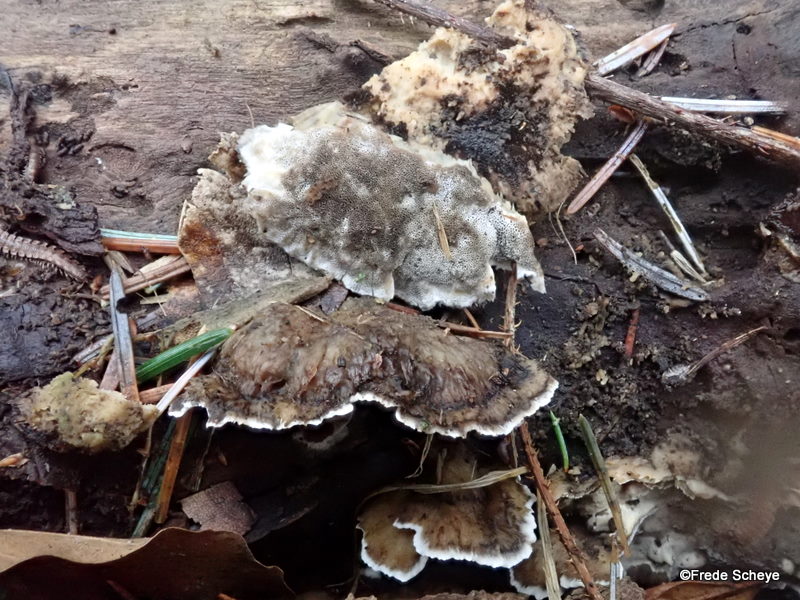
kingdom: Fungi
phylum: Basidiomycota
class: Agaricomycetes
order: Polyporales
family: Phanerochaetaceae
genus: Bjerkandera
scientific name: Bjerkandera adusta
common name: sveden sodporesvamp
